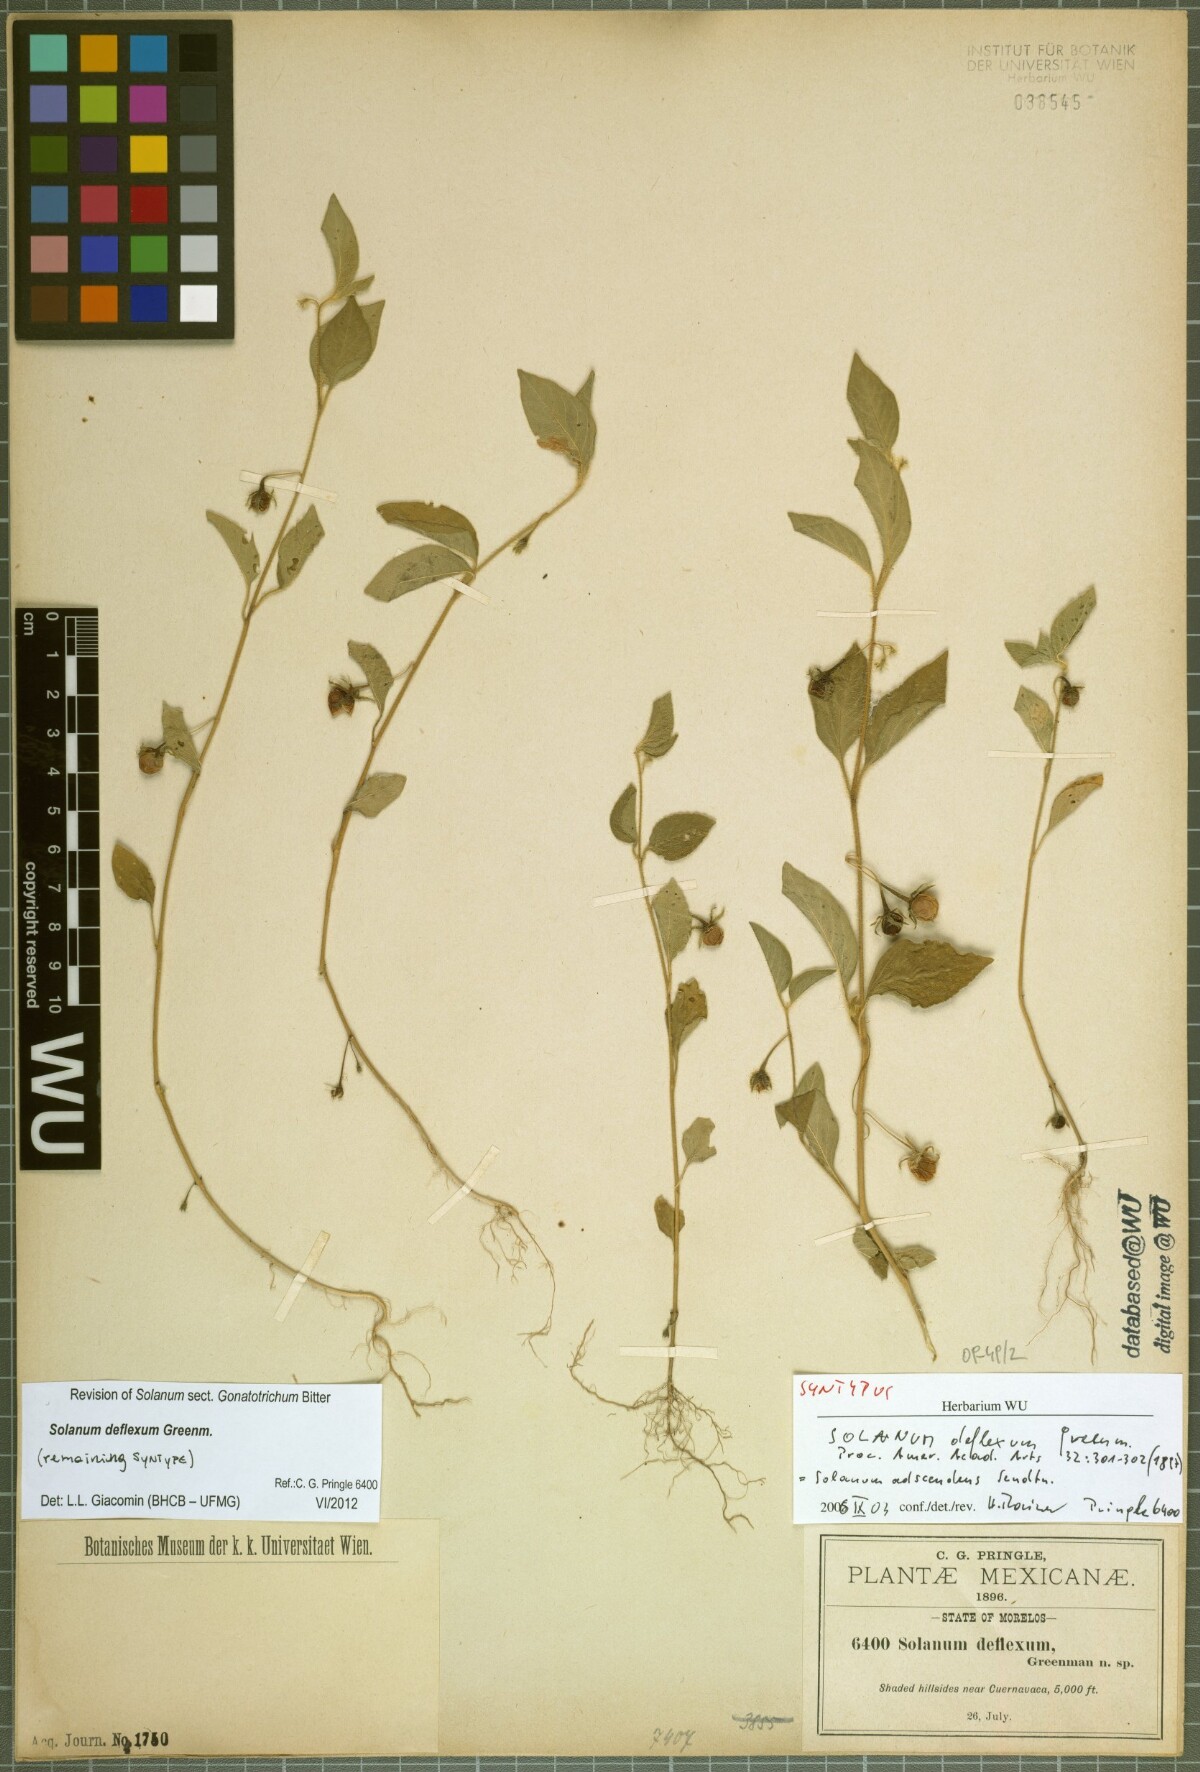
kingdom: Plantae
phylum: Tracheophyta
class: Magnoliopsida
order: Solanales
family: Solanaceae
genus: Solanum
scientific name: Solanum deflexum
